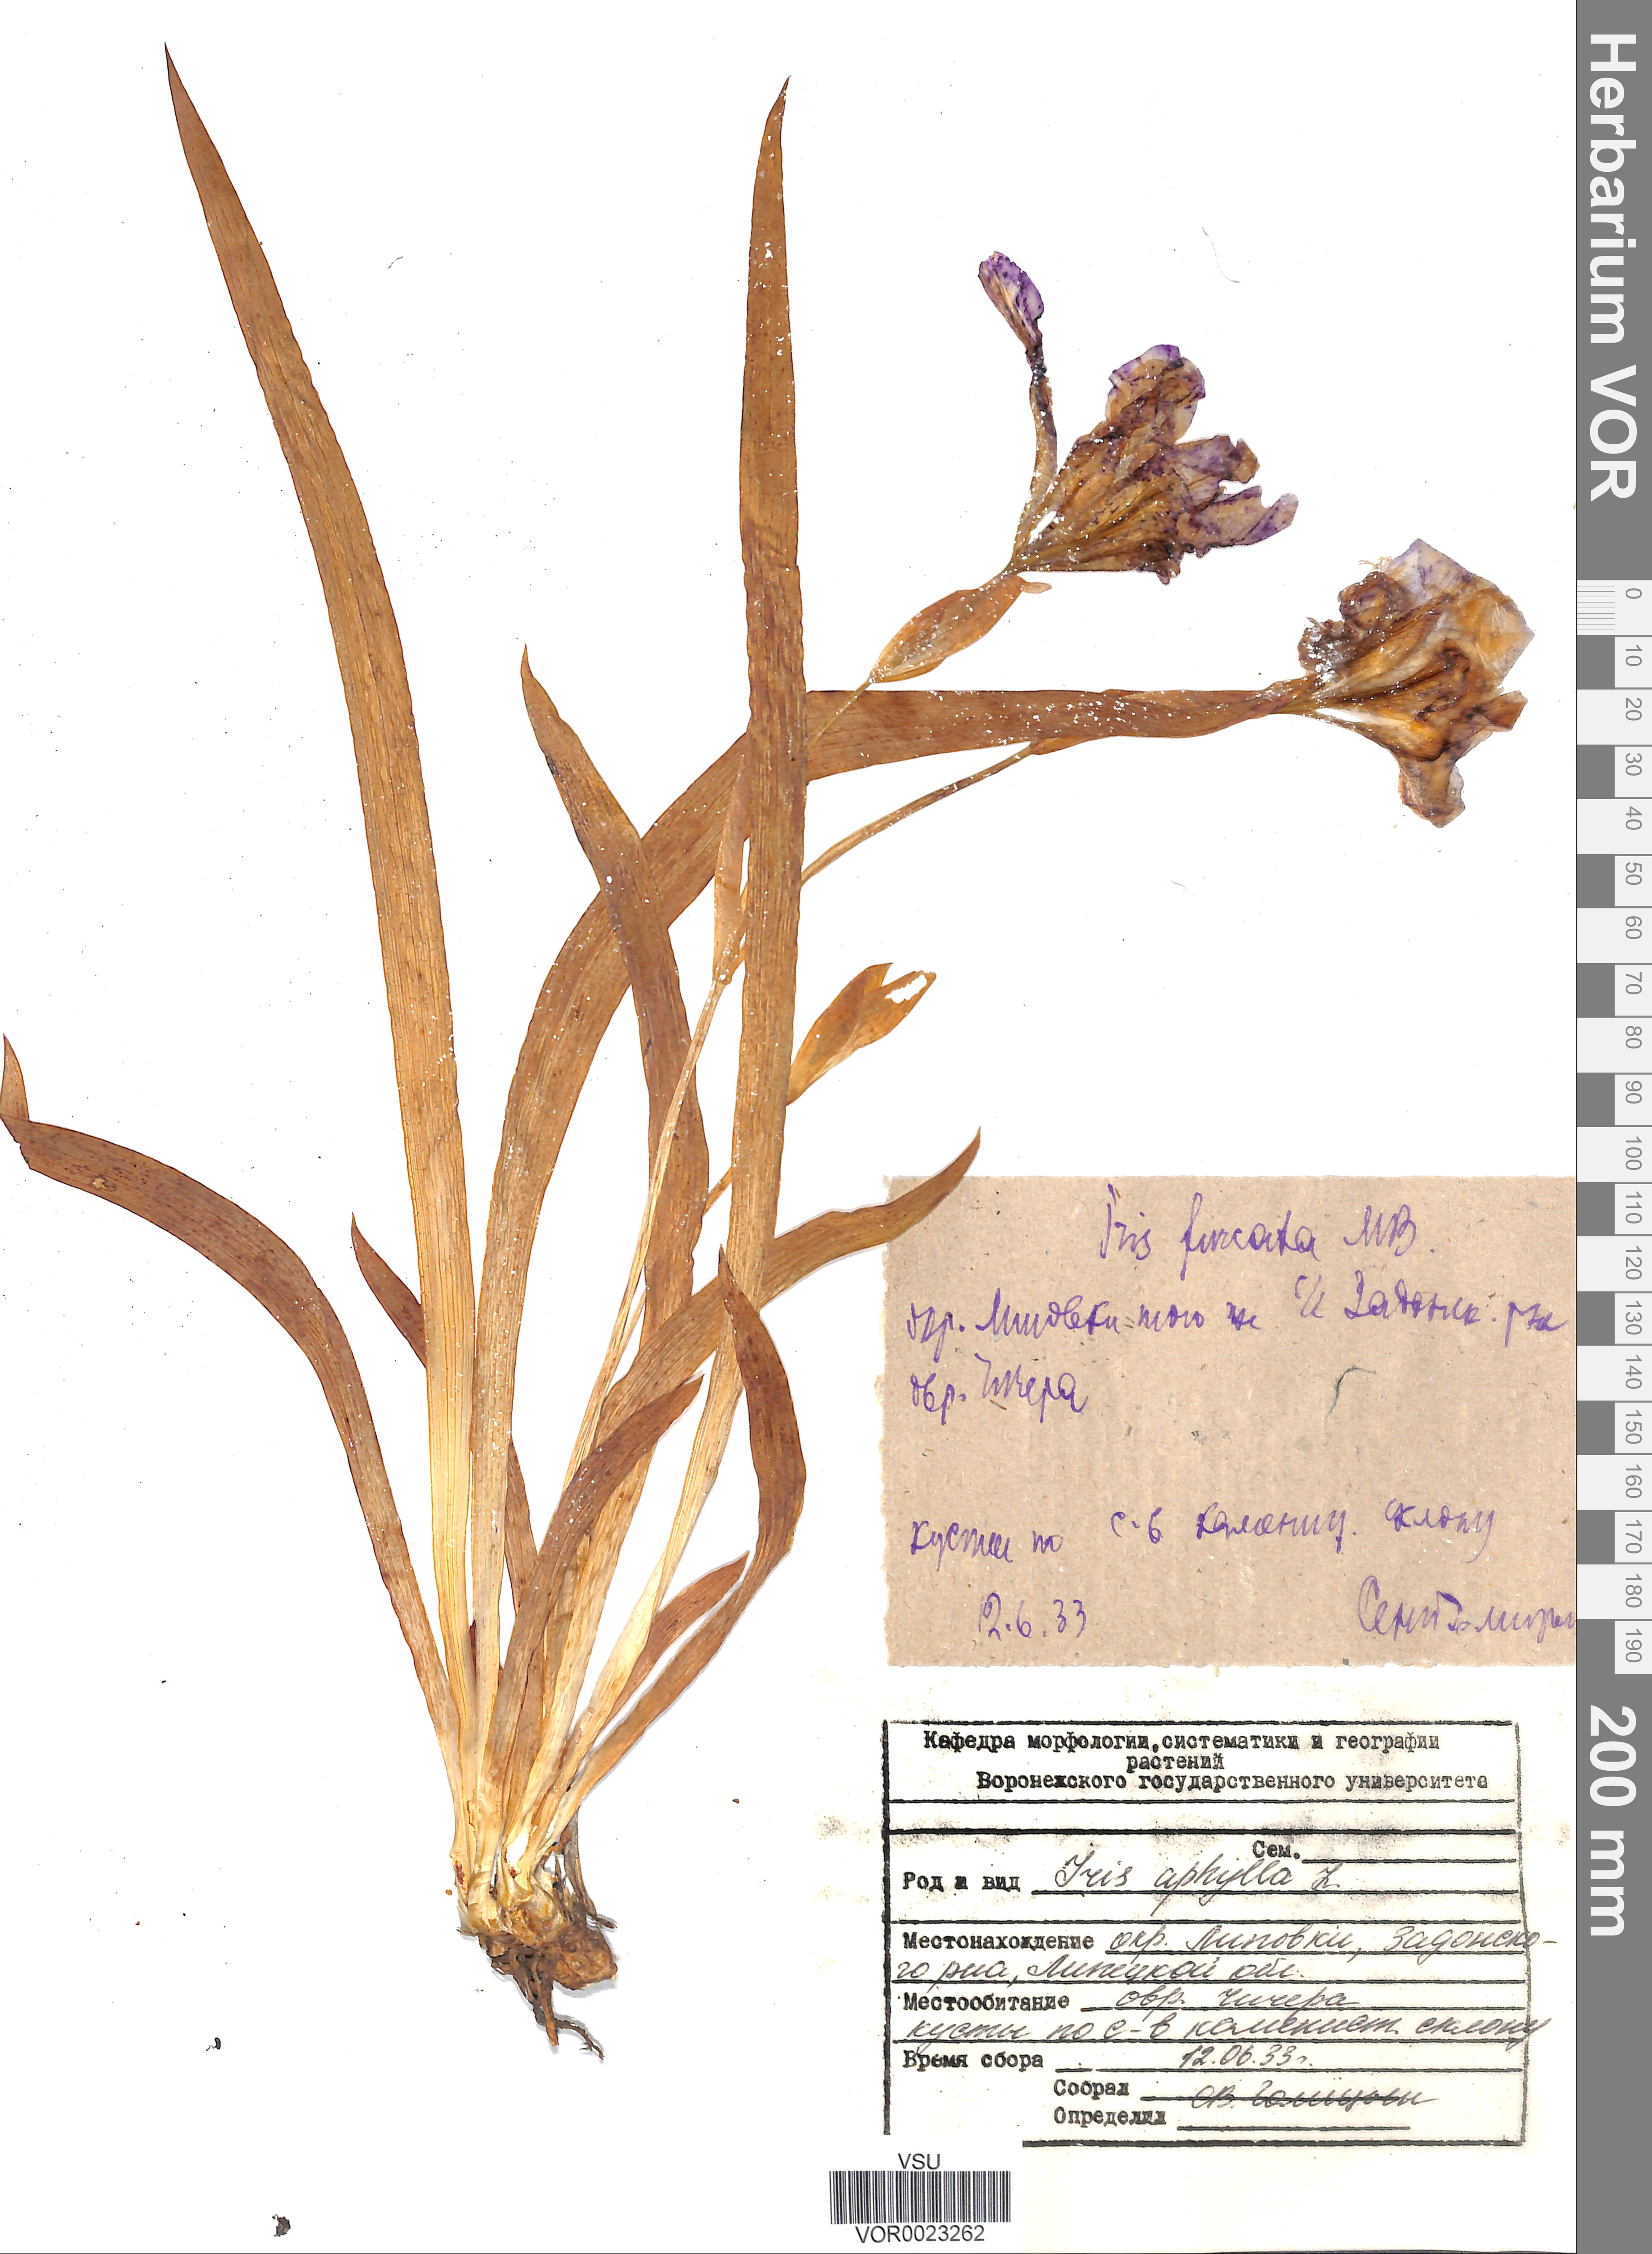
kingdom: Plantae
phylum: Tracheophyta
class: Liliopsida
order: Asparagales
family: Iridaceae
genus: Iris
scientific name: Iris aphylla
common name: Stool iris
